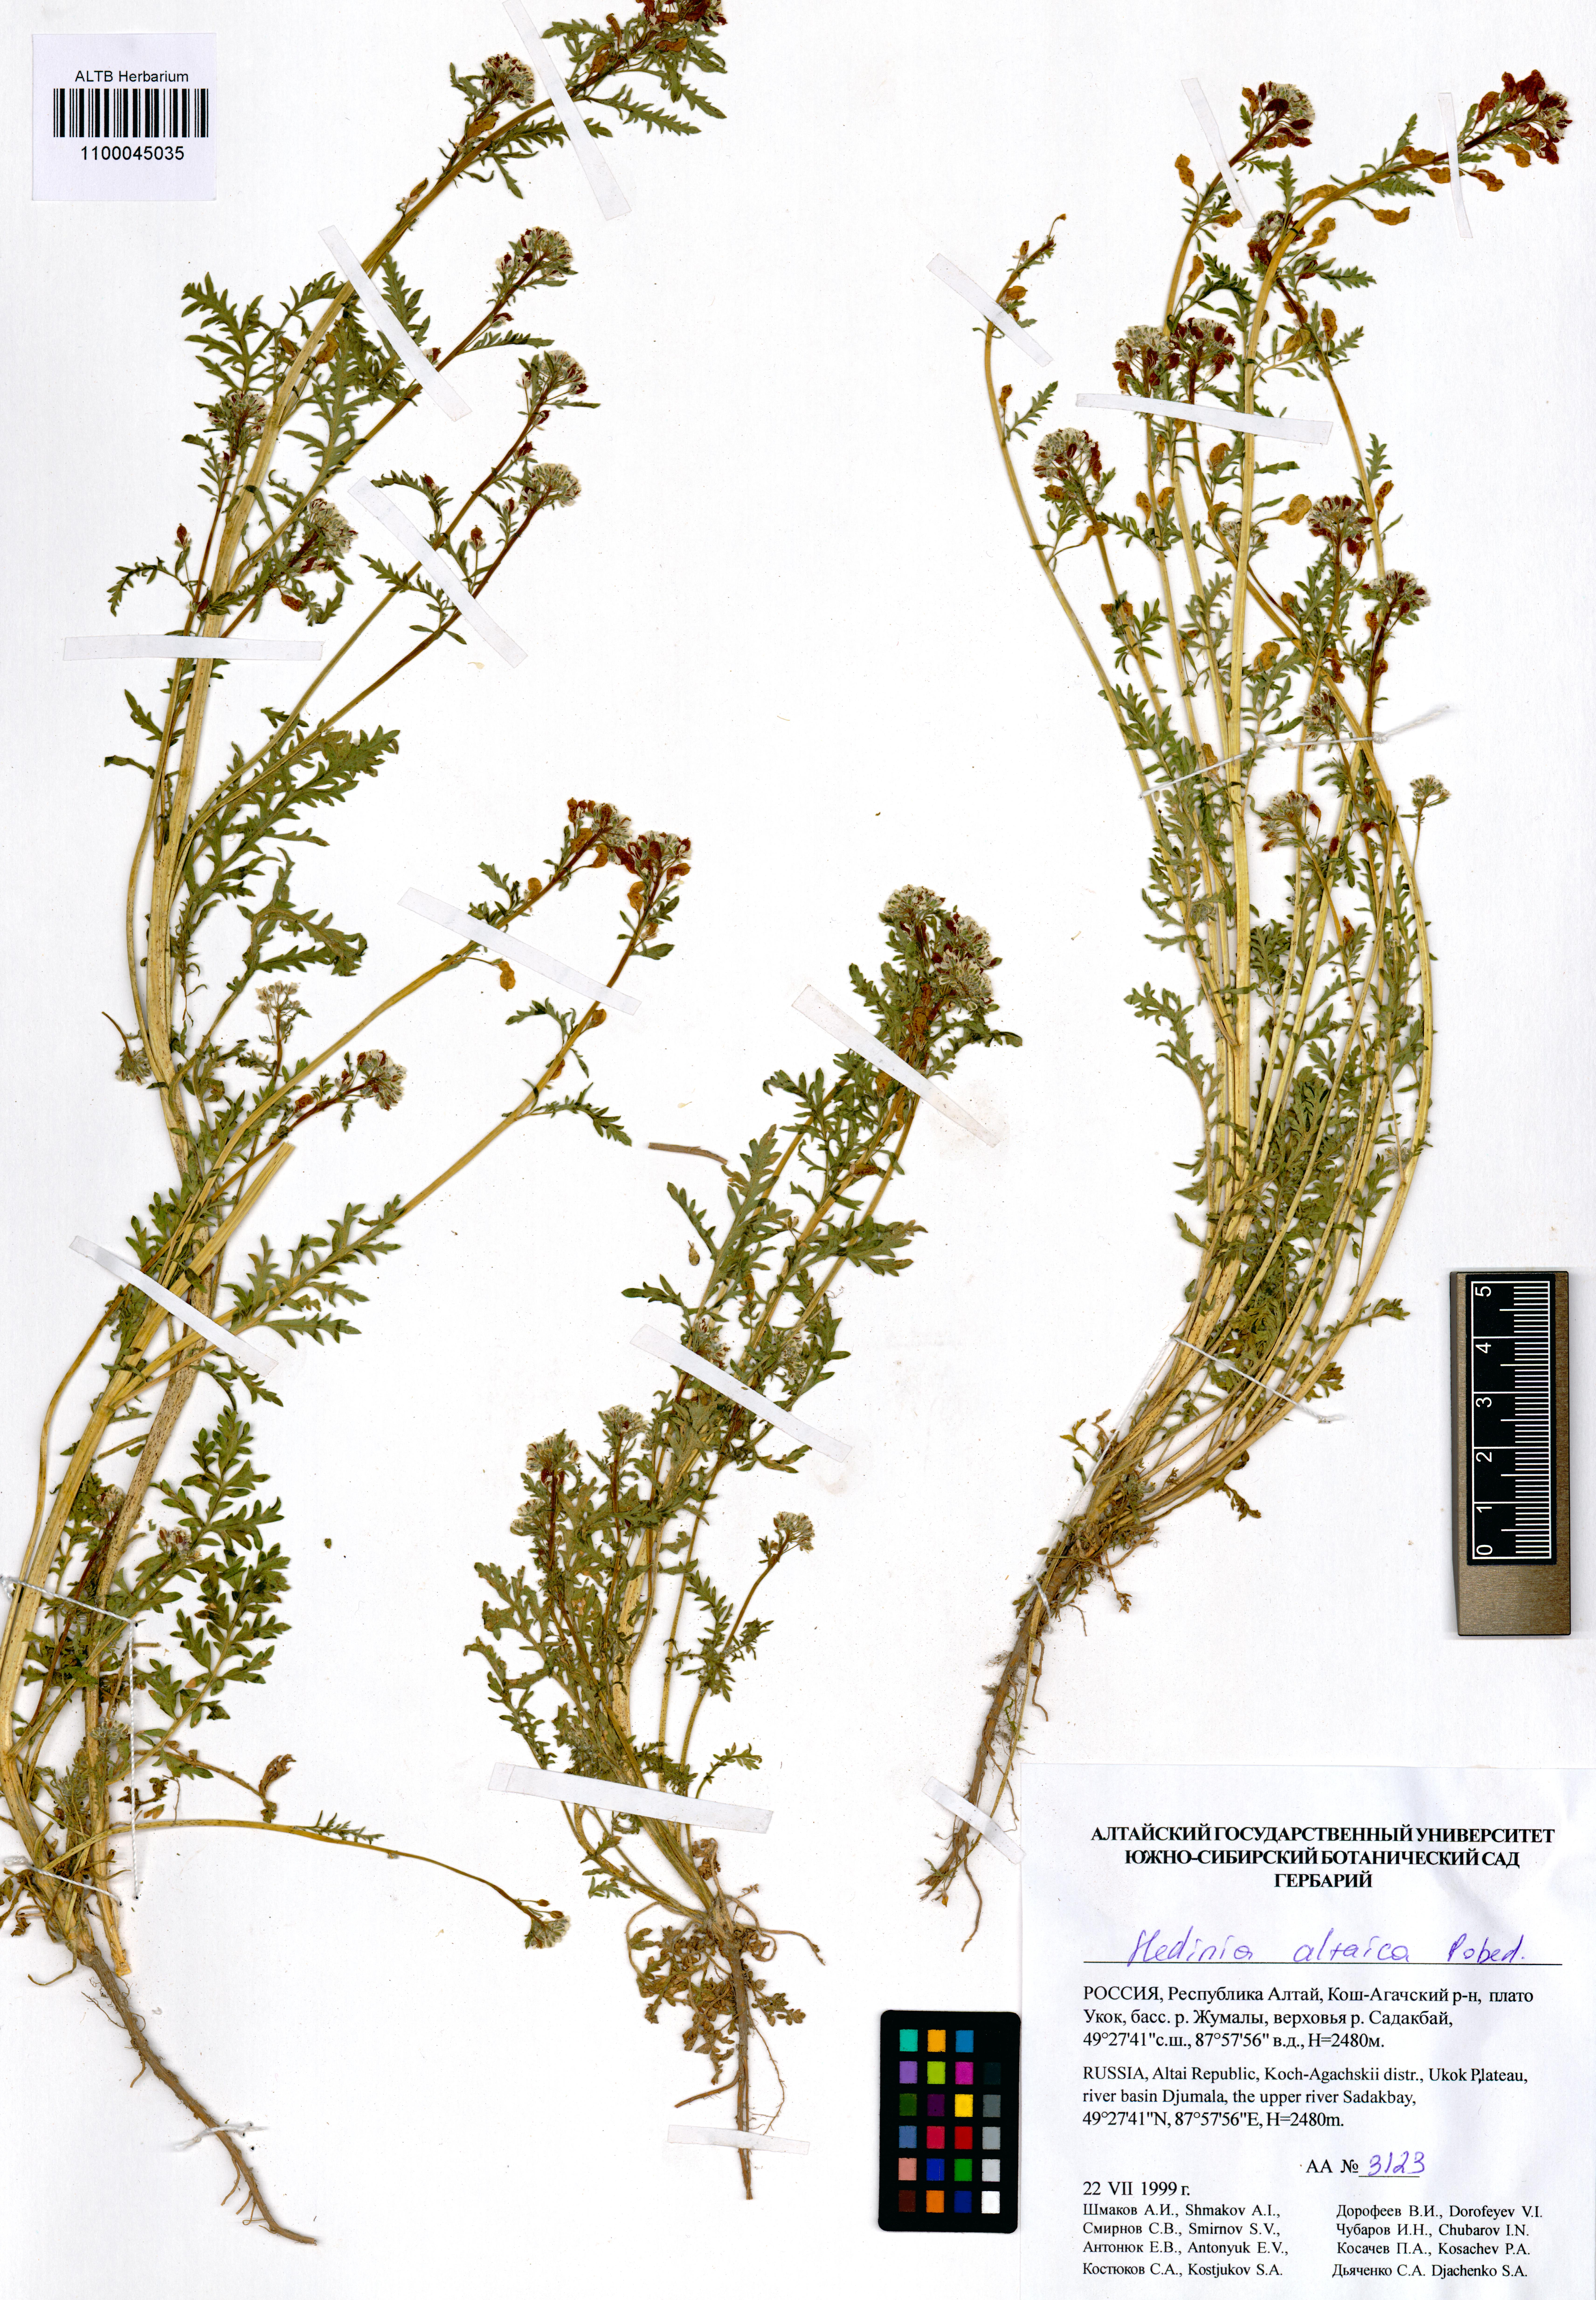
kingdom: Plantae
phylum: Tracheophyta
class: Magnoliopsida
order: Brassicales
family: Brassicaceae
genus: Smelowskia
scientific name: Smelowskia altaica
